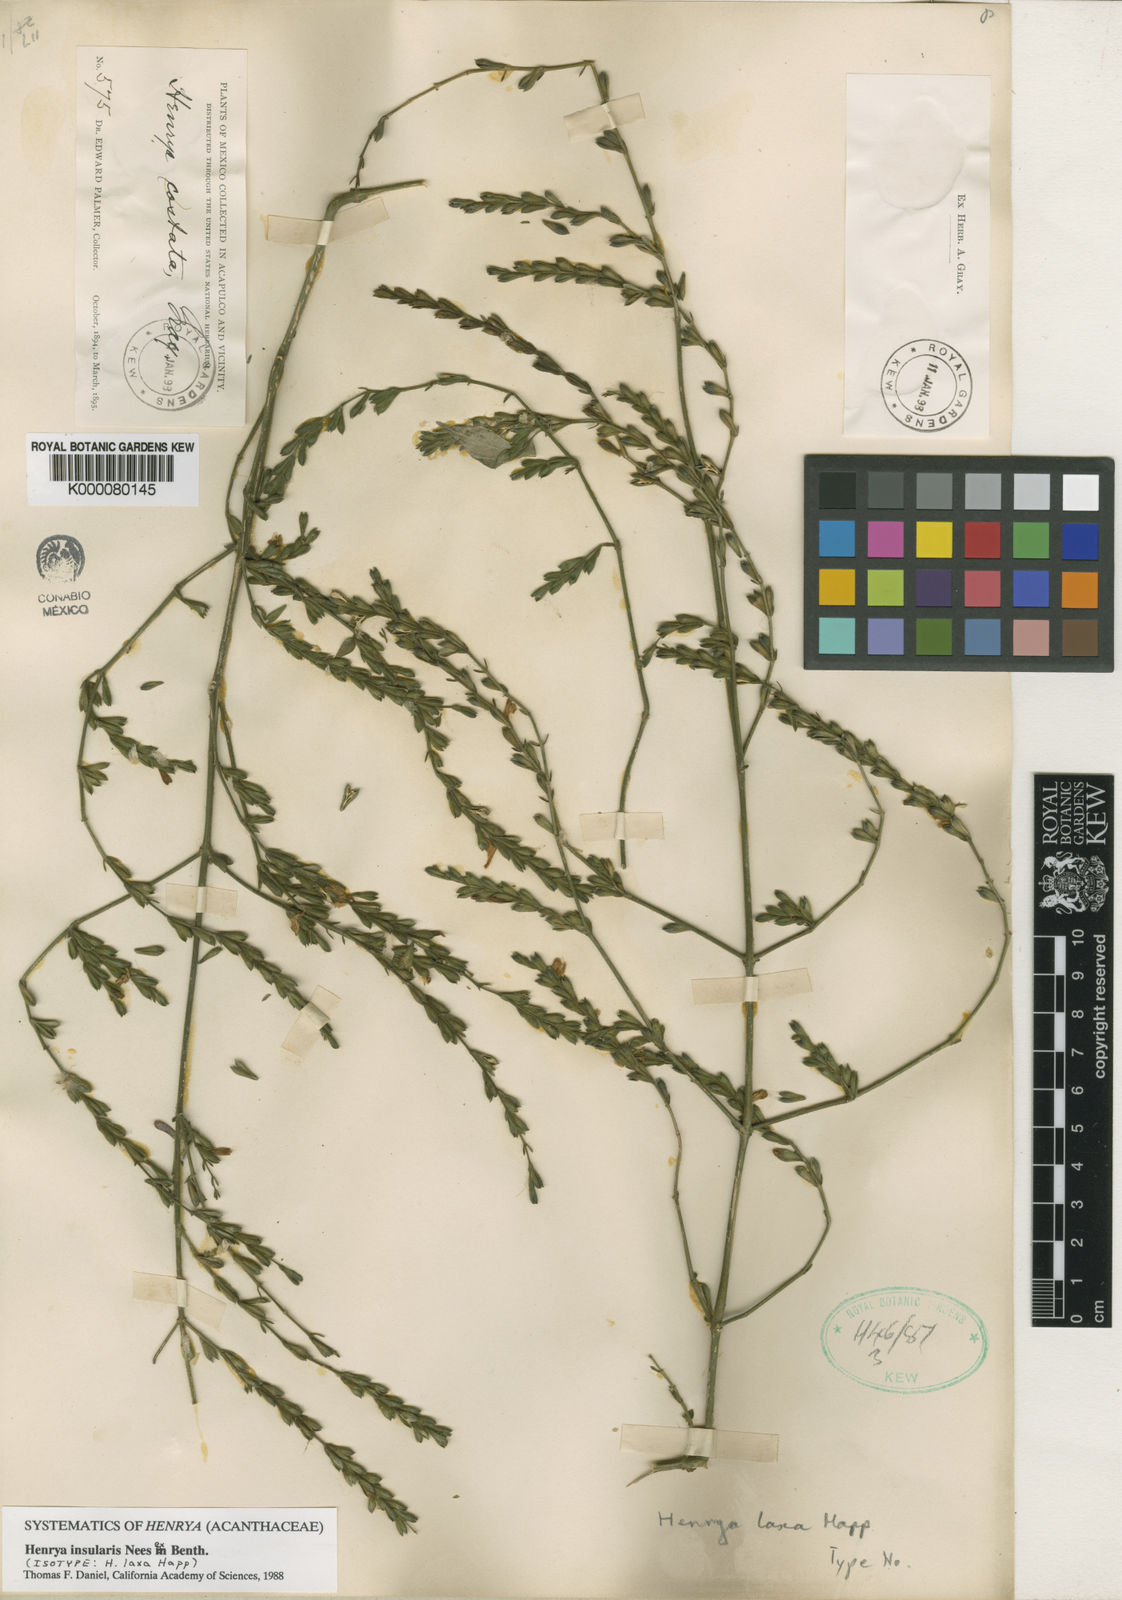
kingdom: Plantae
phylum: Tracheophyta
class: Magnoliopsida
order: Lamiales
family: Acanthaceae
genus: Henrya
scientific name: Henrya
